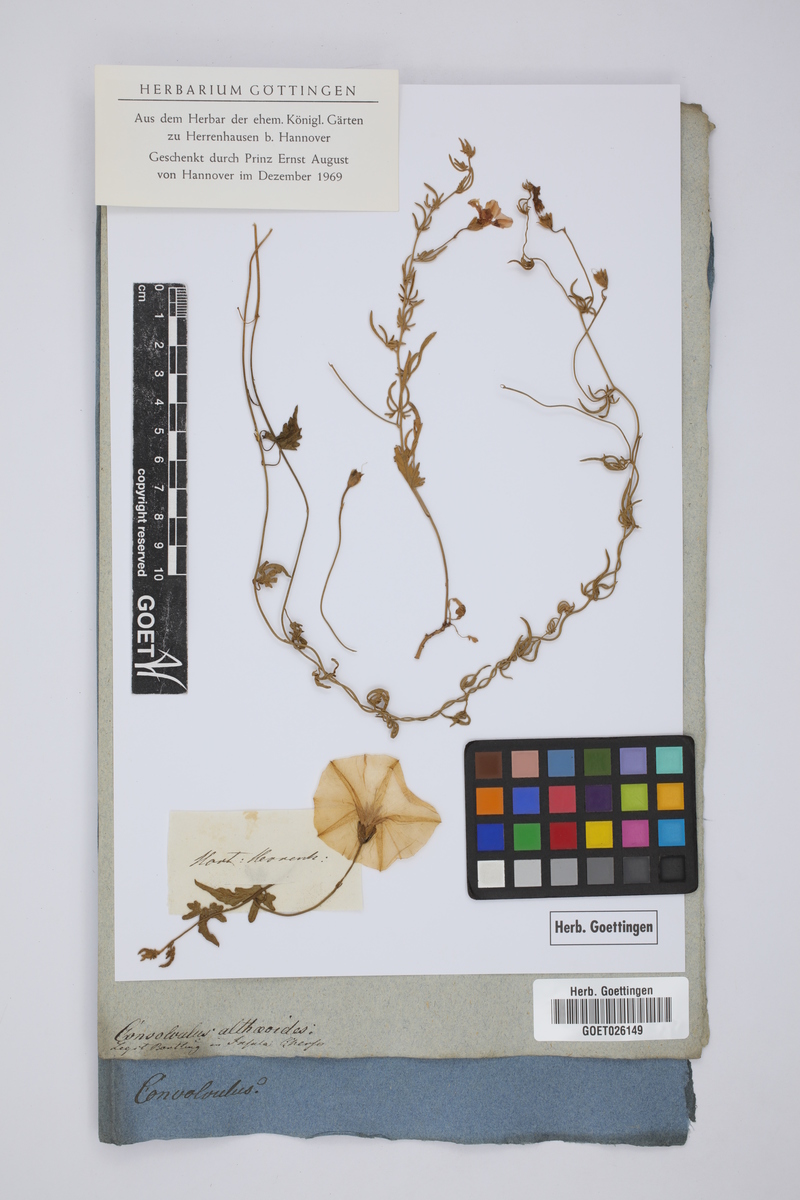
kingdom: Plantae
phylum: Tracheophyta
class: Magnoliopsida
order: Solanales
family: Convolvulaceae
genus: Convolvulus
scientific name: Convolvulus althaeoides
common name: Mallow bindweed
